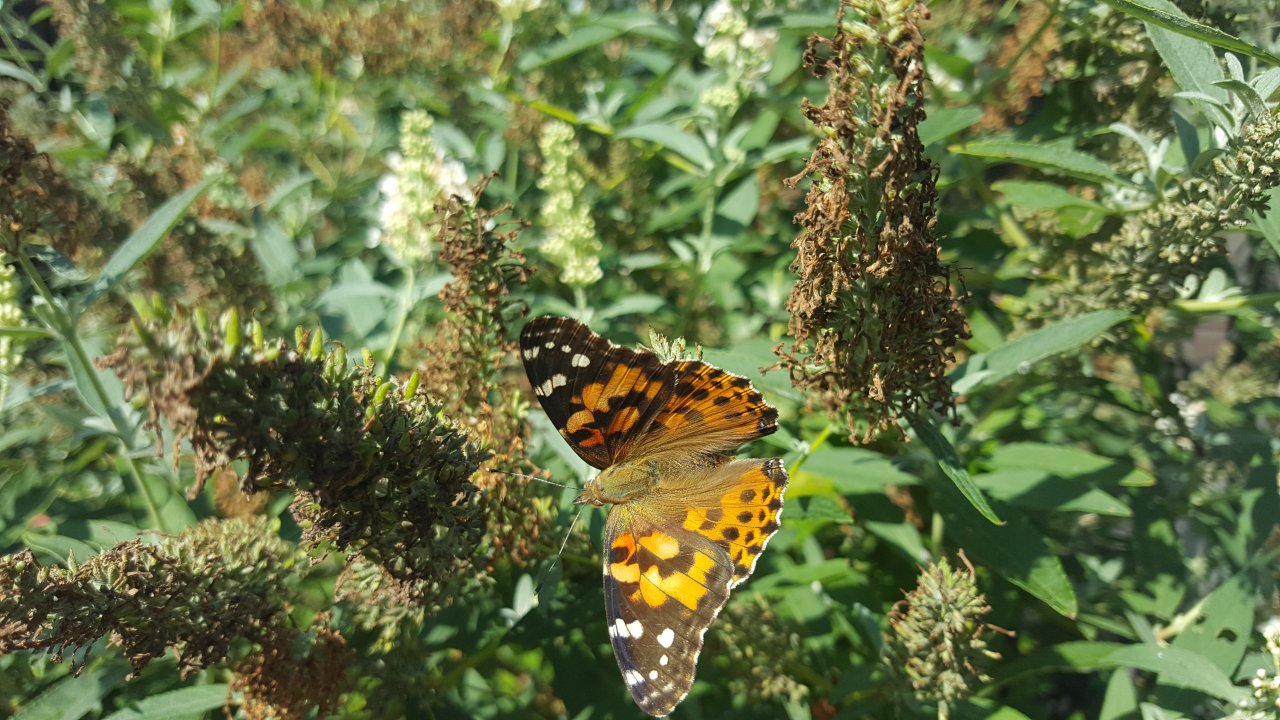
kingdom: Animalia
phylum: Arthropoda
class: Insecta
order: Lepidoptera
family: Nymphalidae
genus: Vanessa
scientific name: Vanessa cardui
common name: Painted Lady
